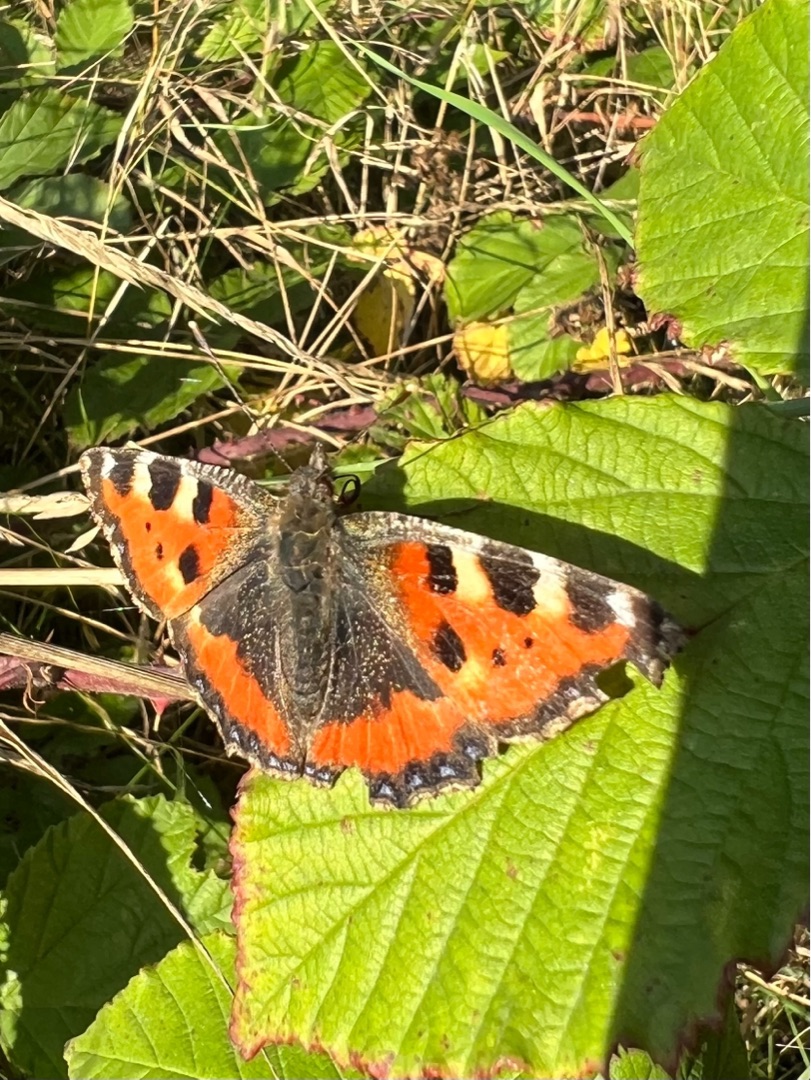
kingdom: Animalia
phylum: Arthropoda
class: Insecta
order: Lepidoptera
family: Nymphalidae
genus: Aglais
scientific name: Aglais urticae
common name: Nældens takvinge
